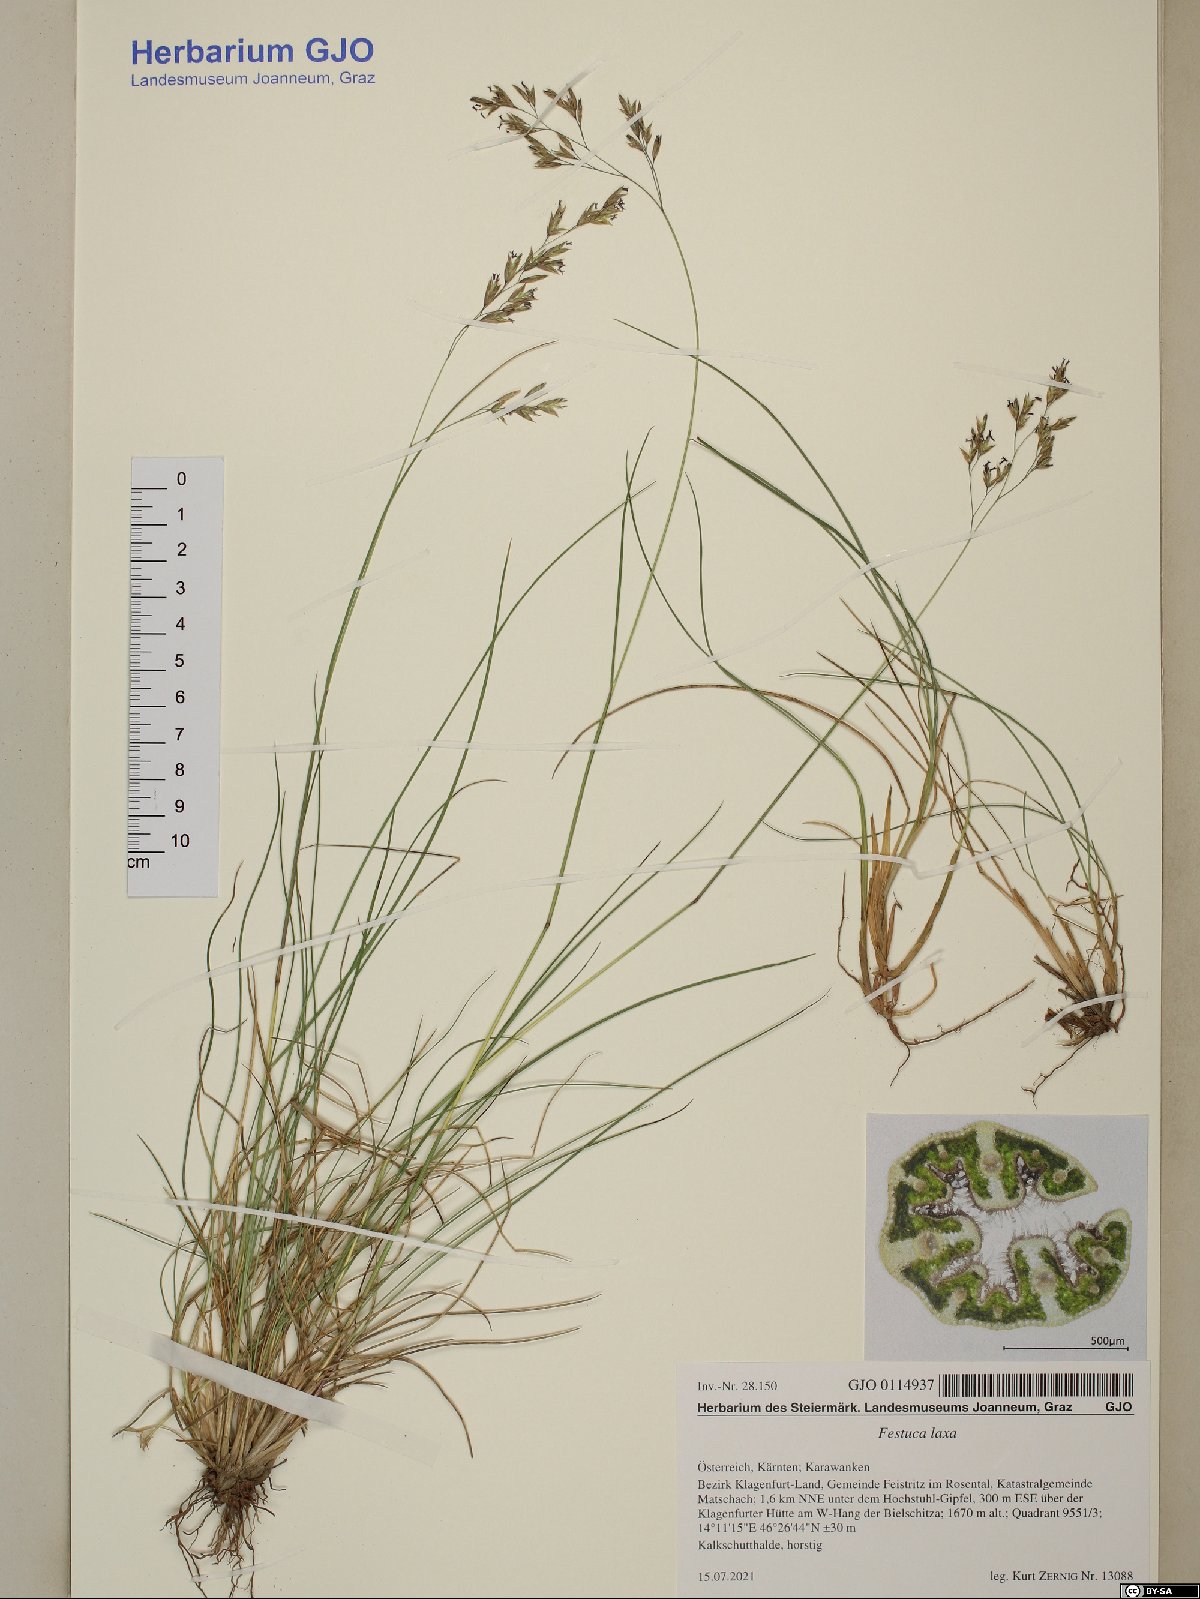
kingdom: Plantae
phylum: Tracheophyta
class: Liliopsida
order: Poales
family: Poaceae
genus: Festuca
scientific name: Festuca laxa
